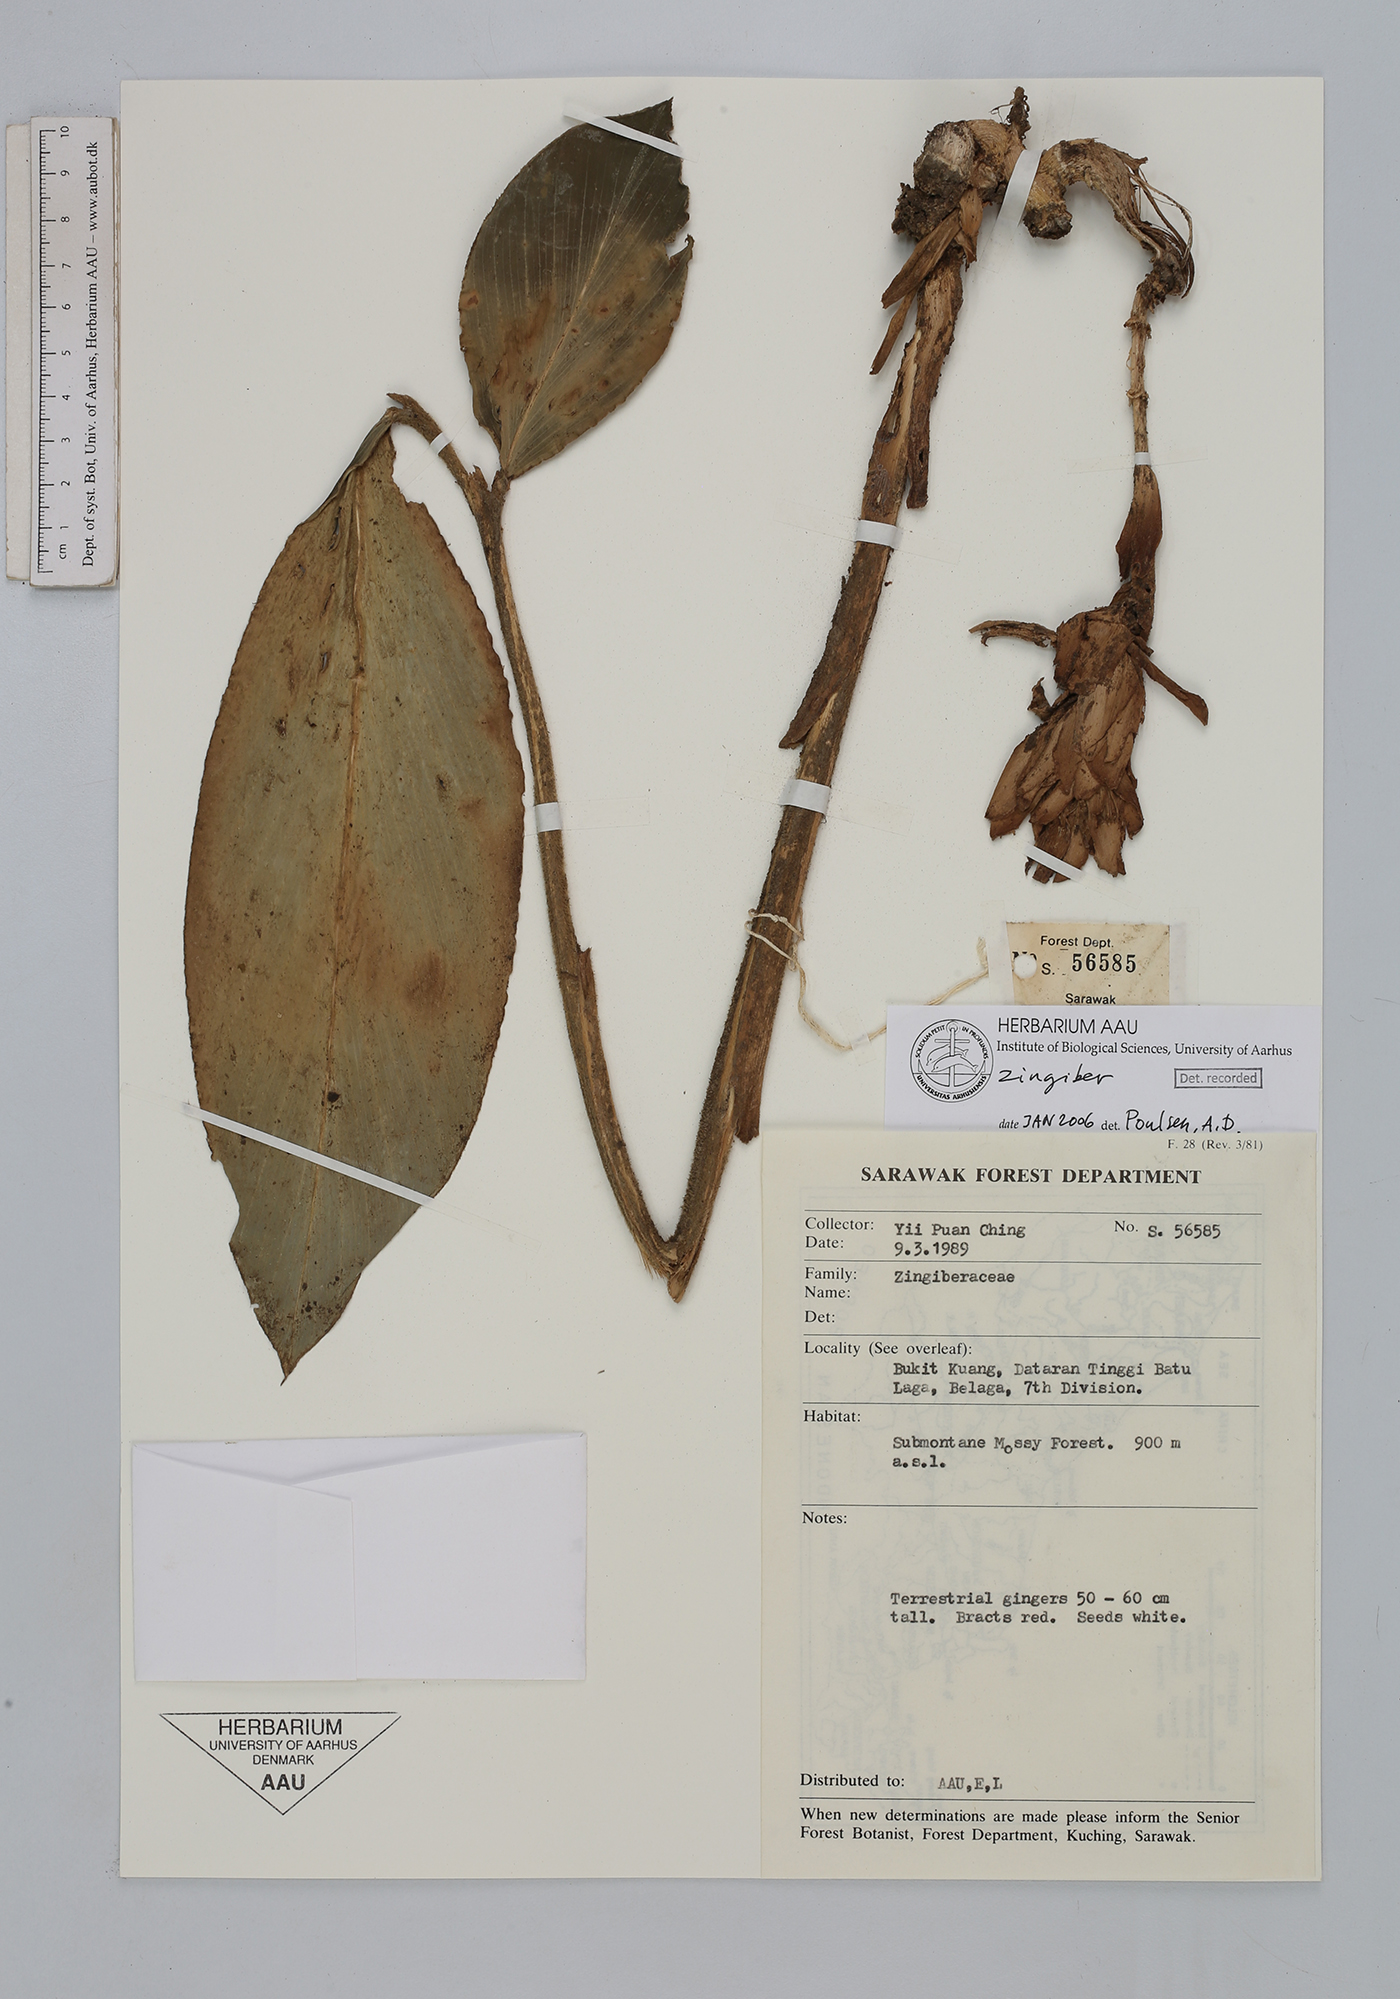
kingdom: Plantae
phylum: Tracheophyta
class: Liliopsida
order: Zingiberales
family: Zingiberaceae
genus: Zingiber
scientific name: Zingiber
